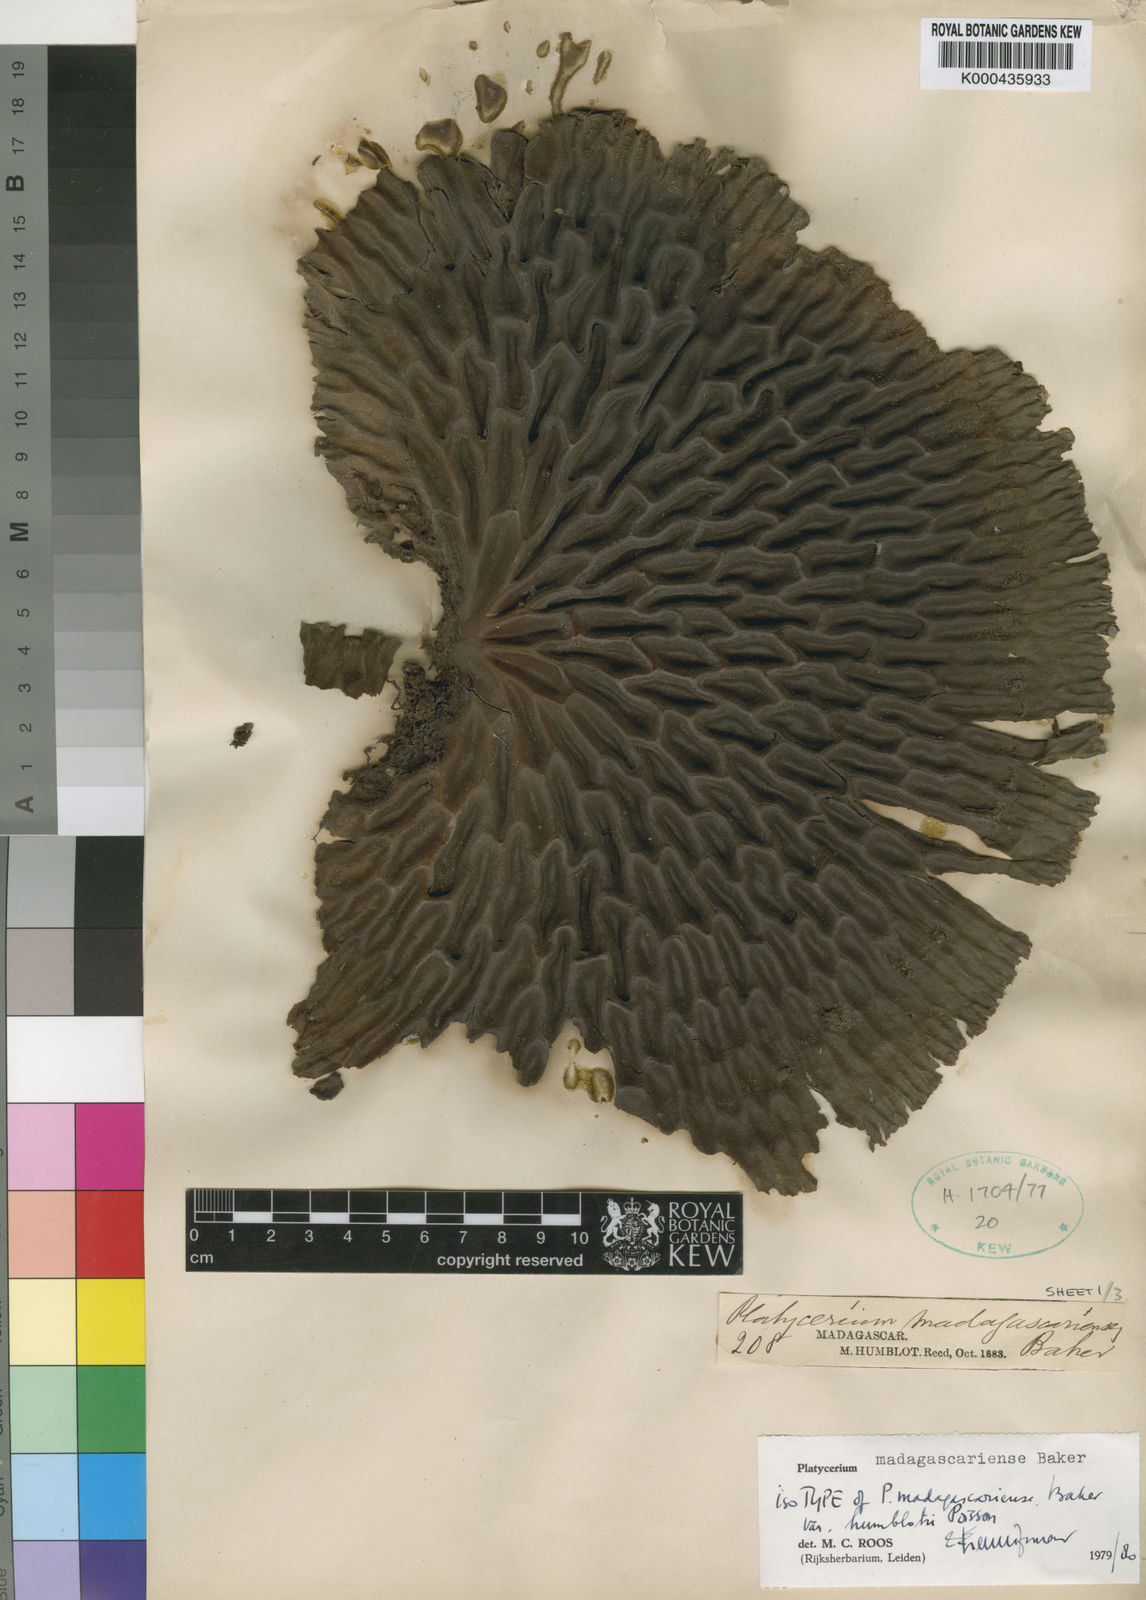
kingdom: Plantae
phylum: Tracheophyta
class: Polypodiopsida
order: Polypodiales
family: Polypodiaceae
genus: Platycerium
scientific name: Platycerium madagascariense
